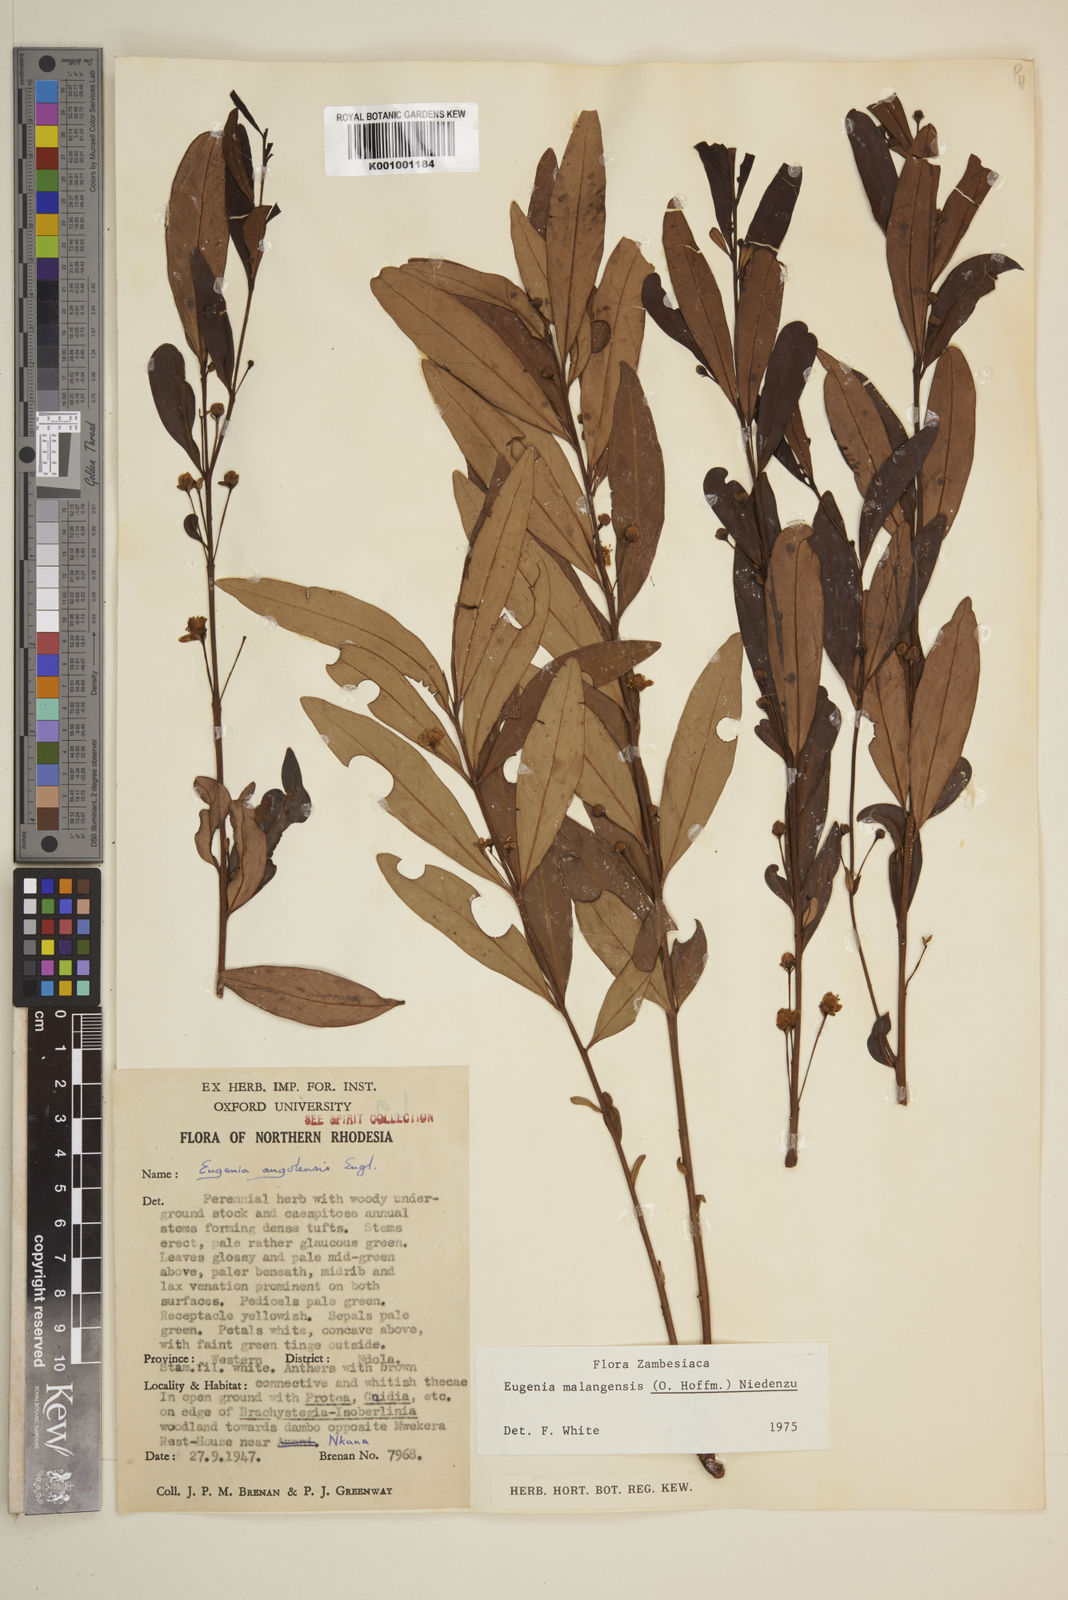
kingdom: Plantae
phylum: Tracheophyta
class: Magnoliopsida
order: Myrtales
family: Myrtaceae
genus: Eugenia
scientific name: Eugenia malangensis
